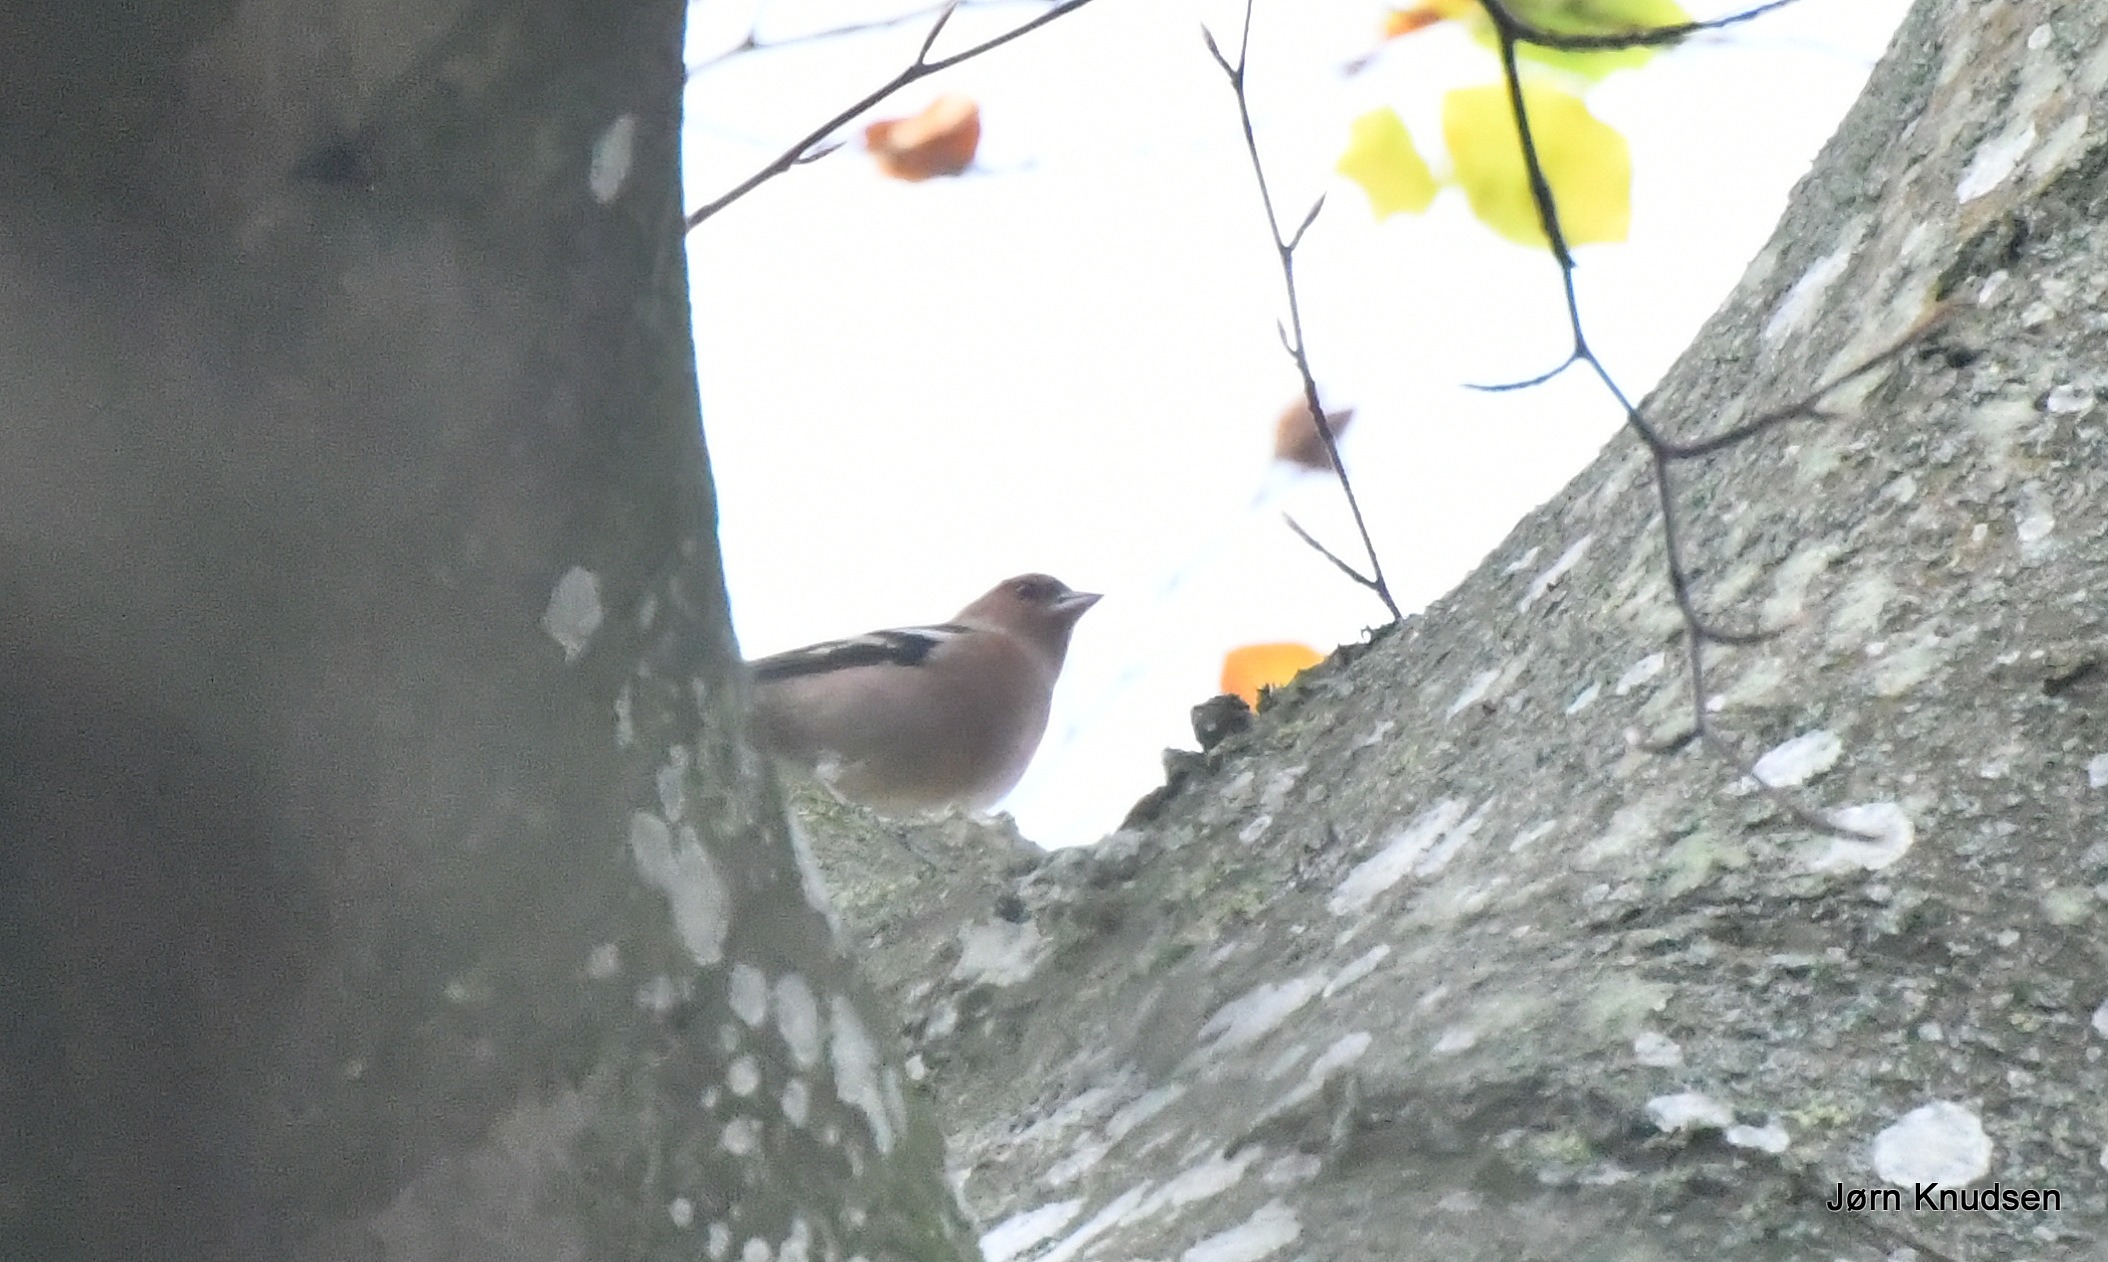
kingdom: Animalia
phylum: Chordata
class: Aves
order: Passeriformes
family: Fringillidae
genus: Fringilla
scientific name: Fringilla coelebs
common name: Bogfinke
